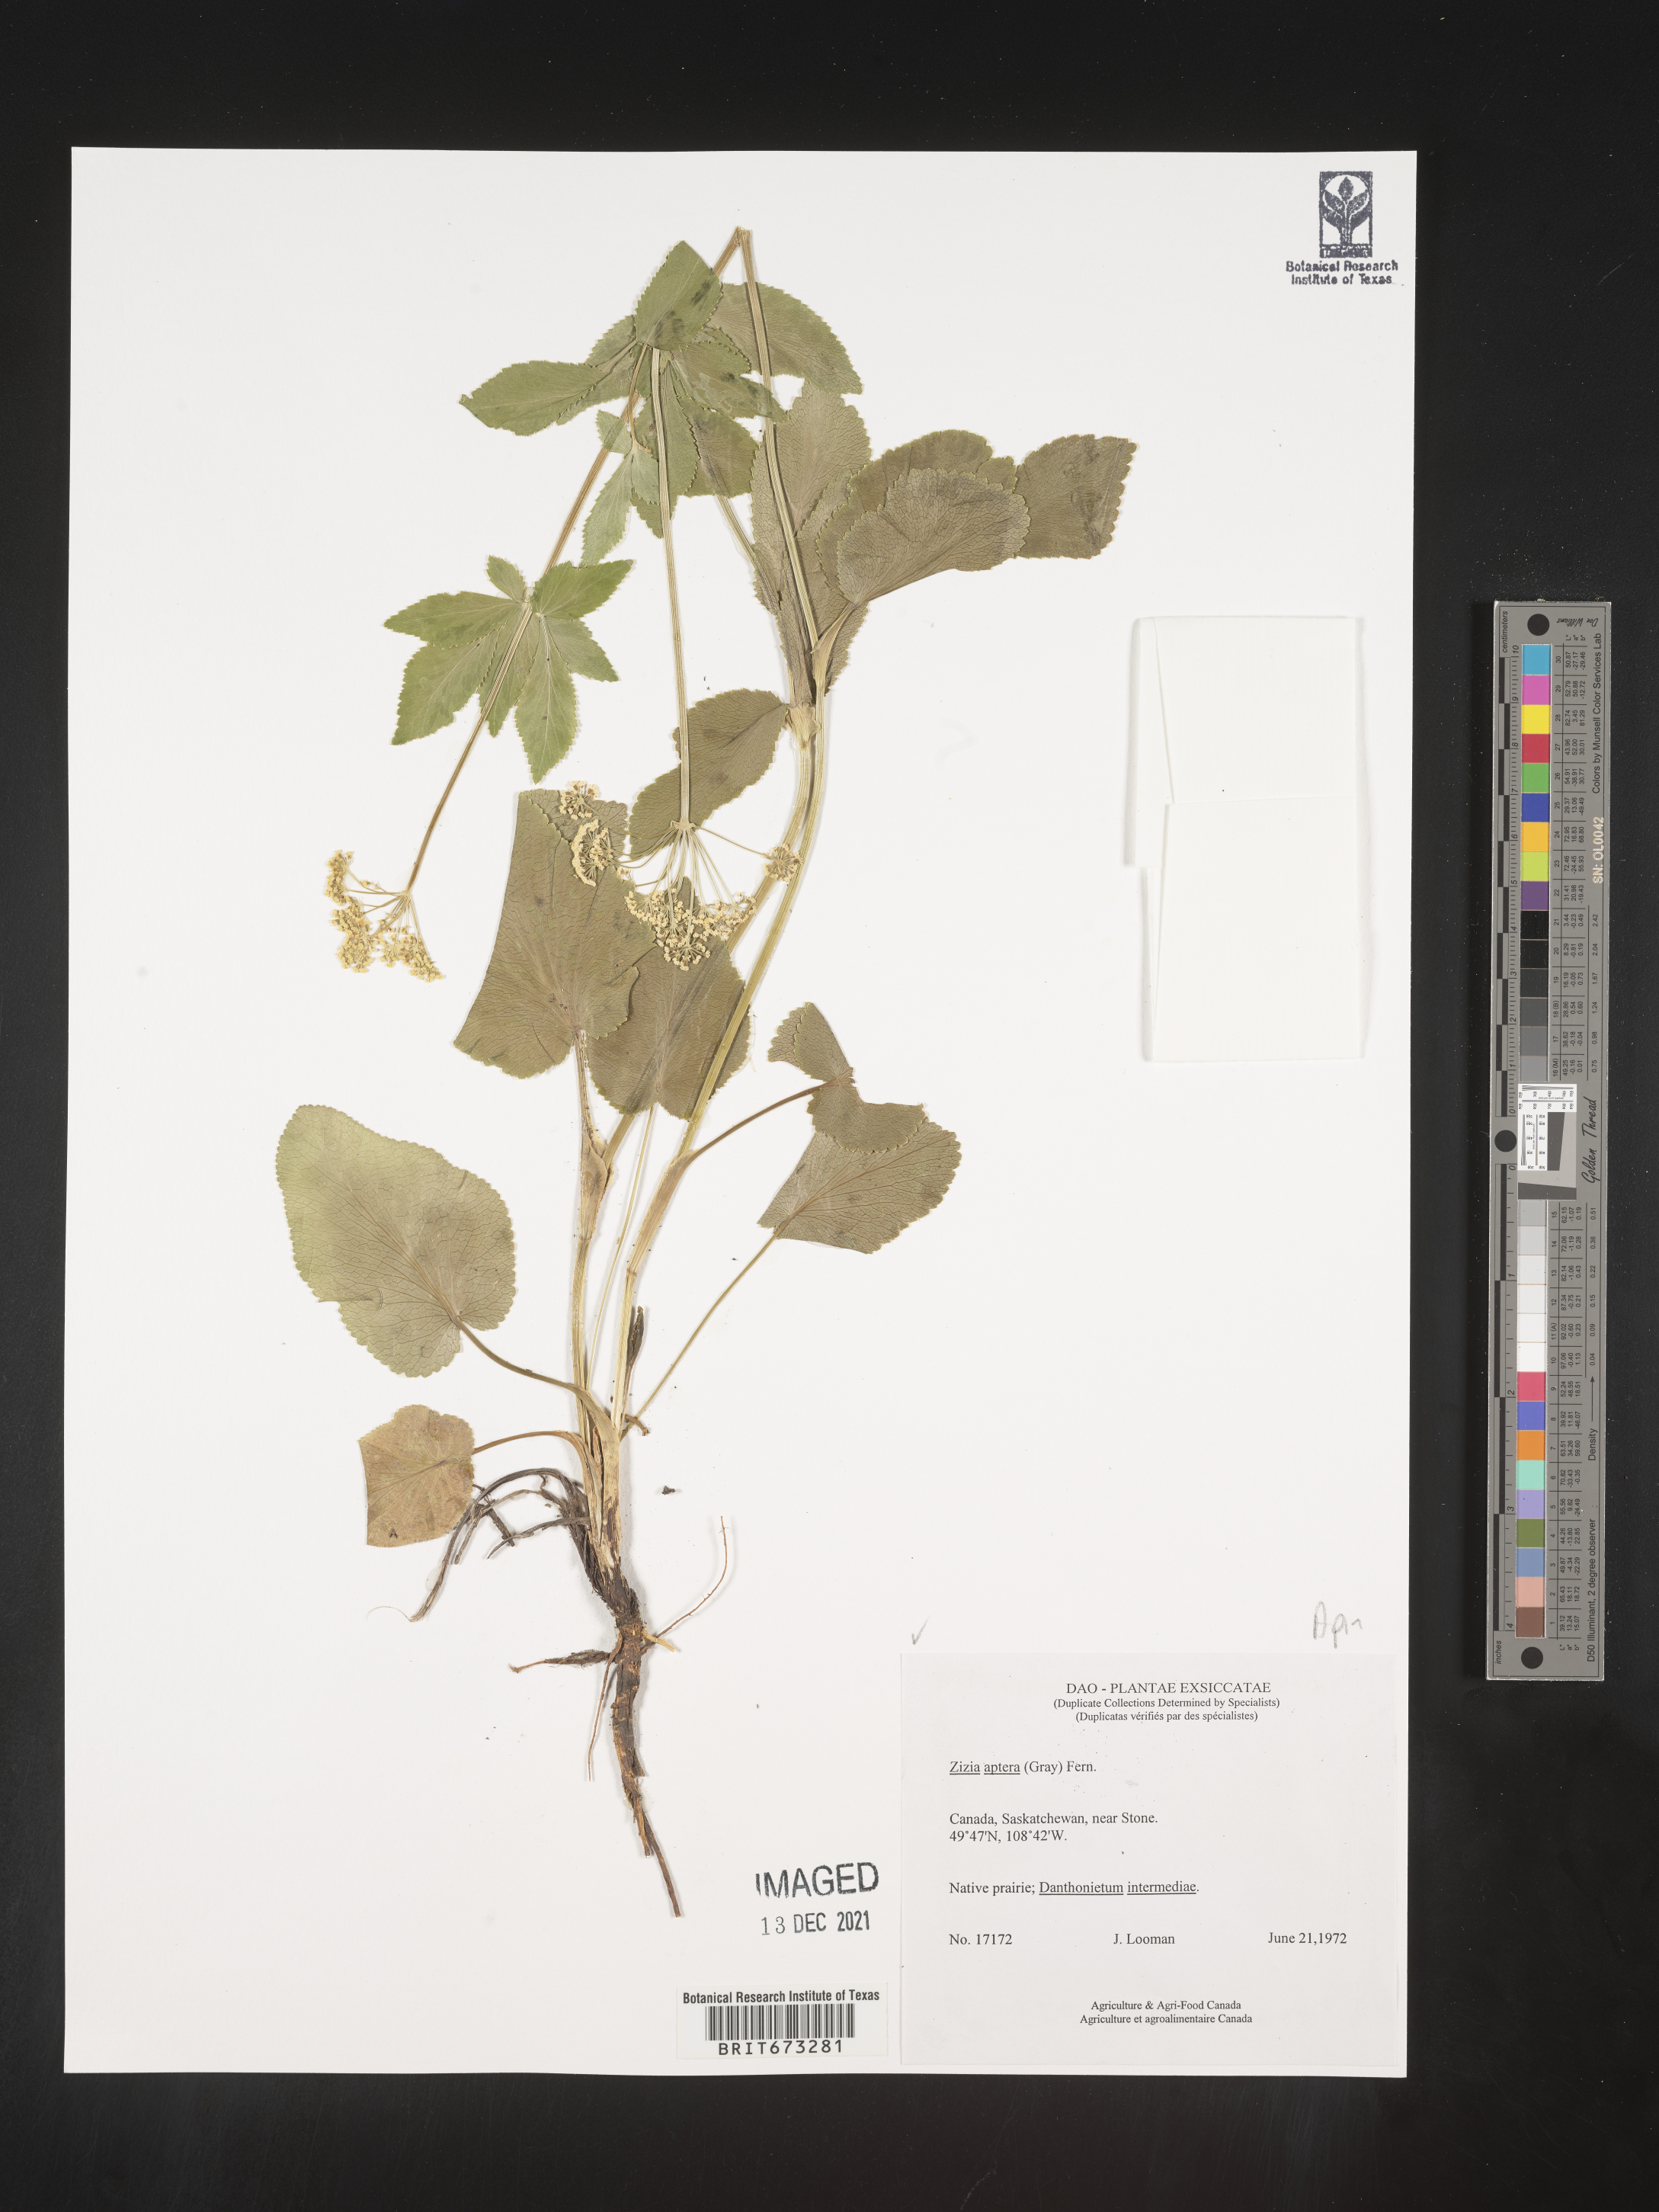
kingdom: Plantae
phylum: Tracheophyta
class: Magnoliopsida
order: Apiales
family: Apiaceae
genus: Zizia
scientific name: Zizia aptera
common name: Heart-leaved alexanders
